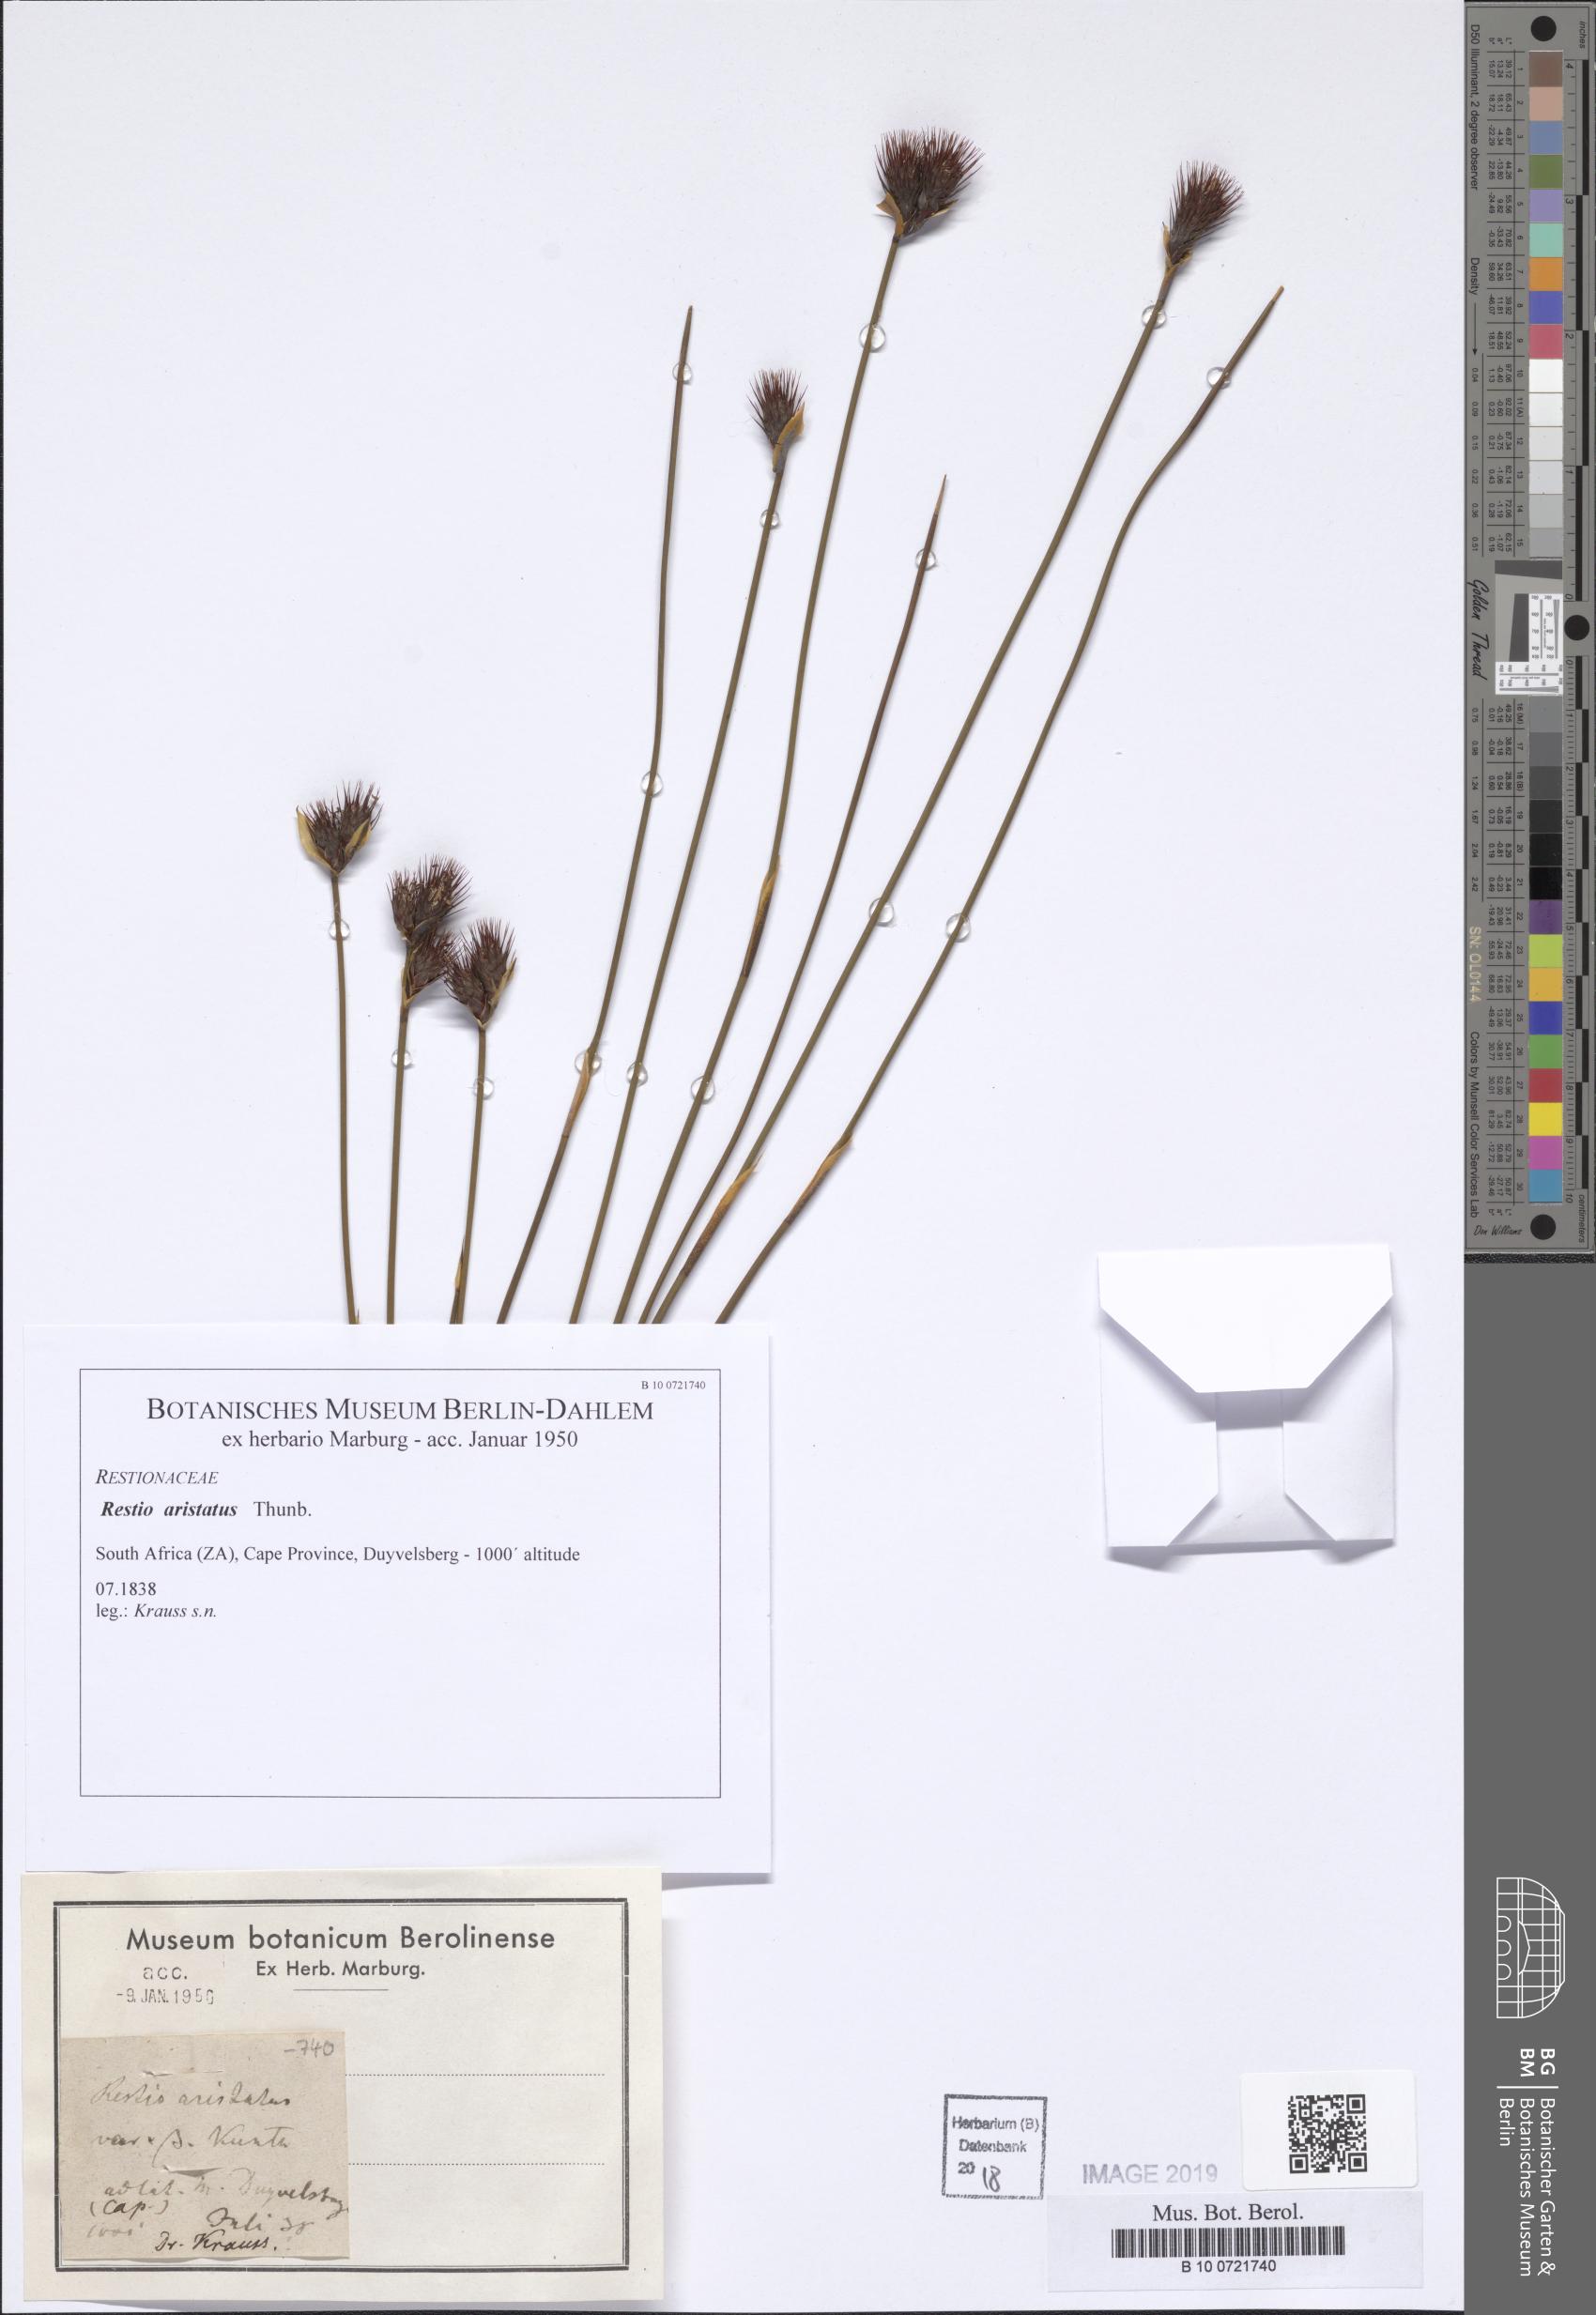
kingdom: Plantae
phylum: Tracheophyta
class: Liliopsida
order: Poales
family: Restionaceae
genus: Hypodiscus
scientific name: Hypodiscus aristatus
